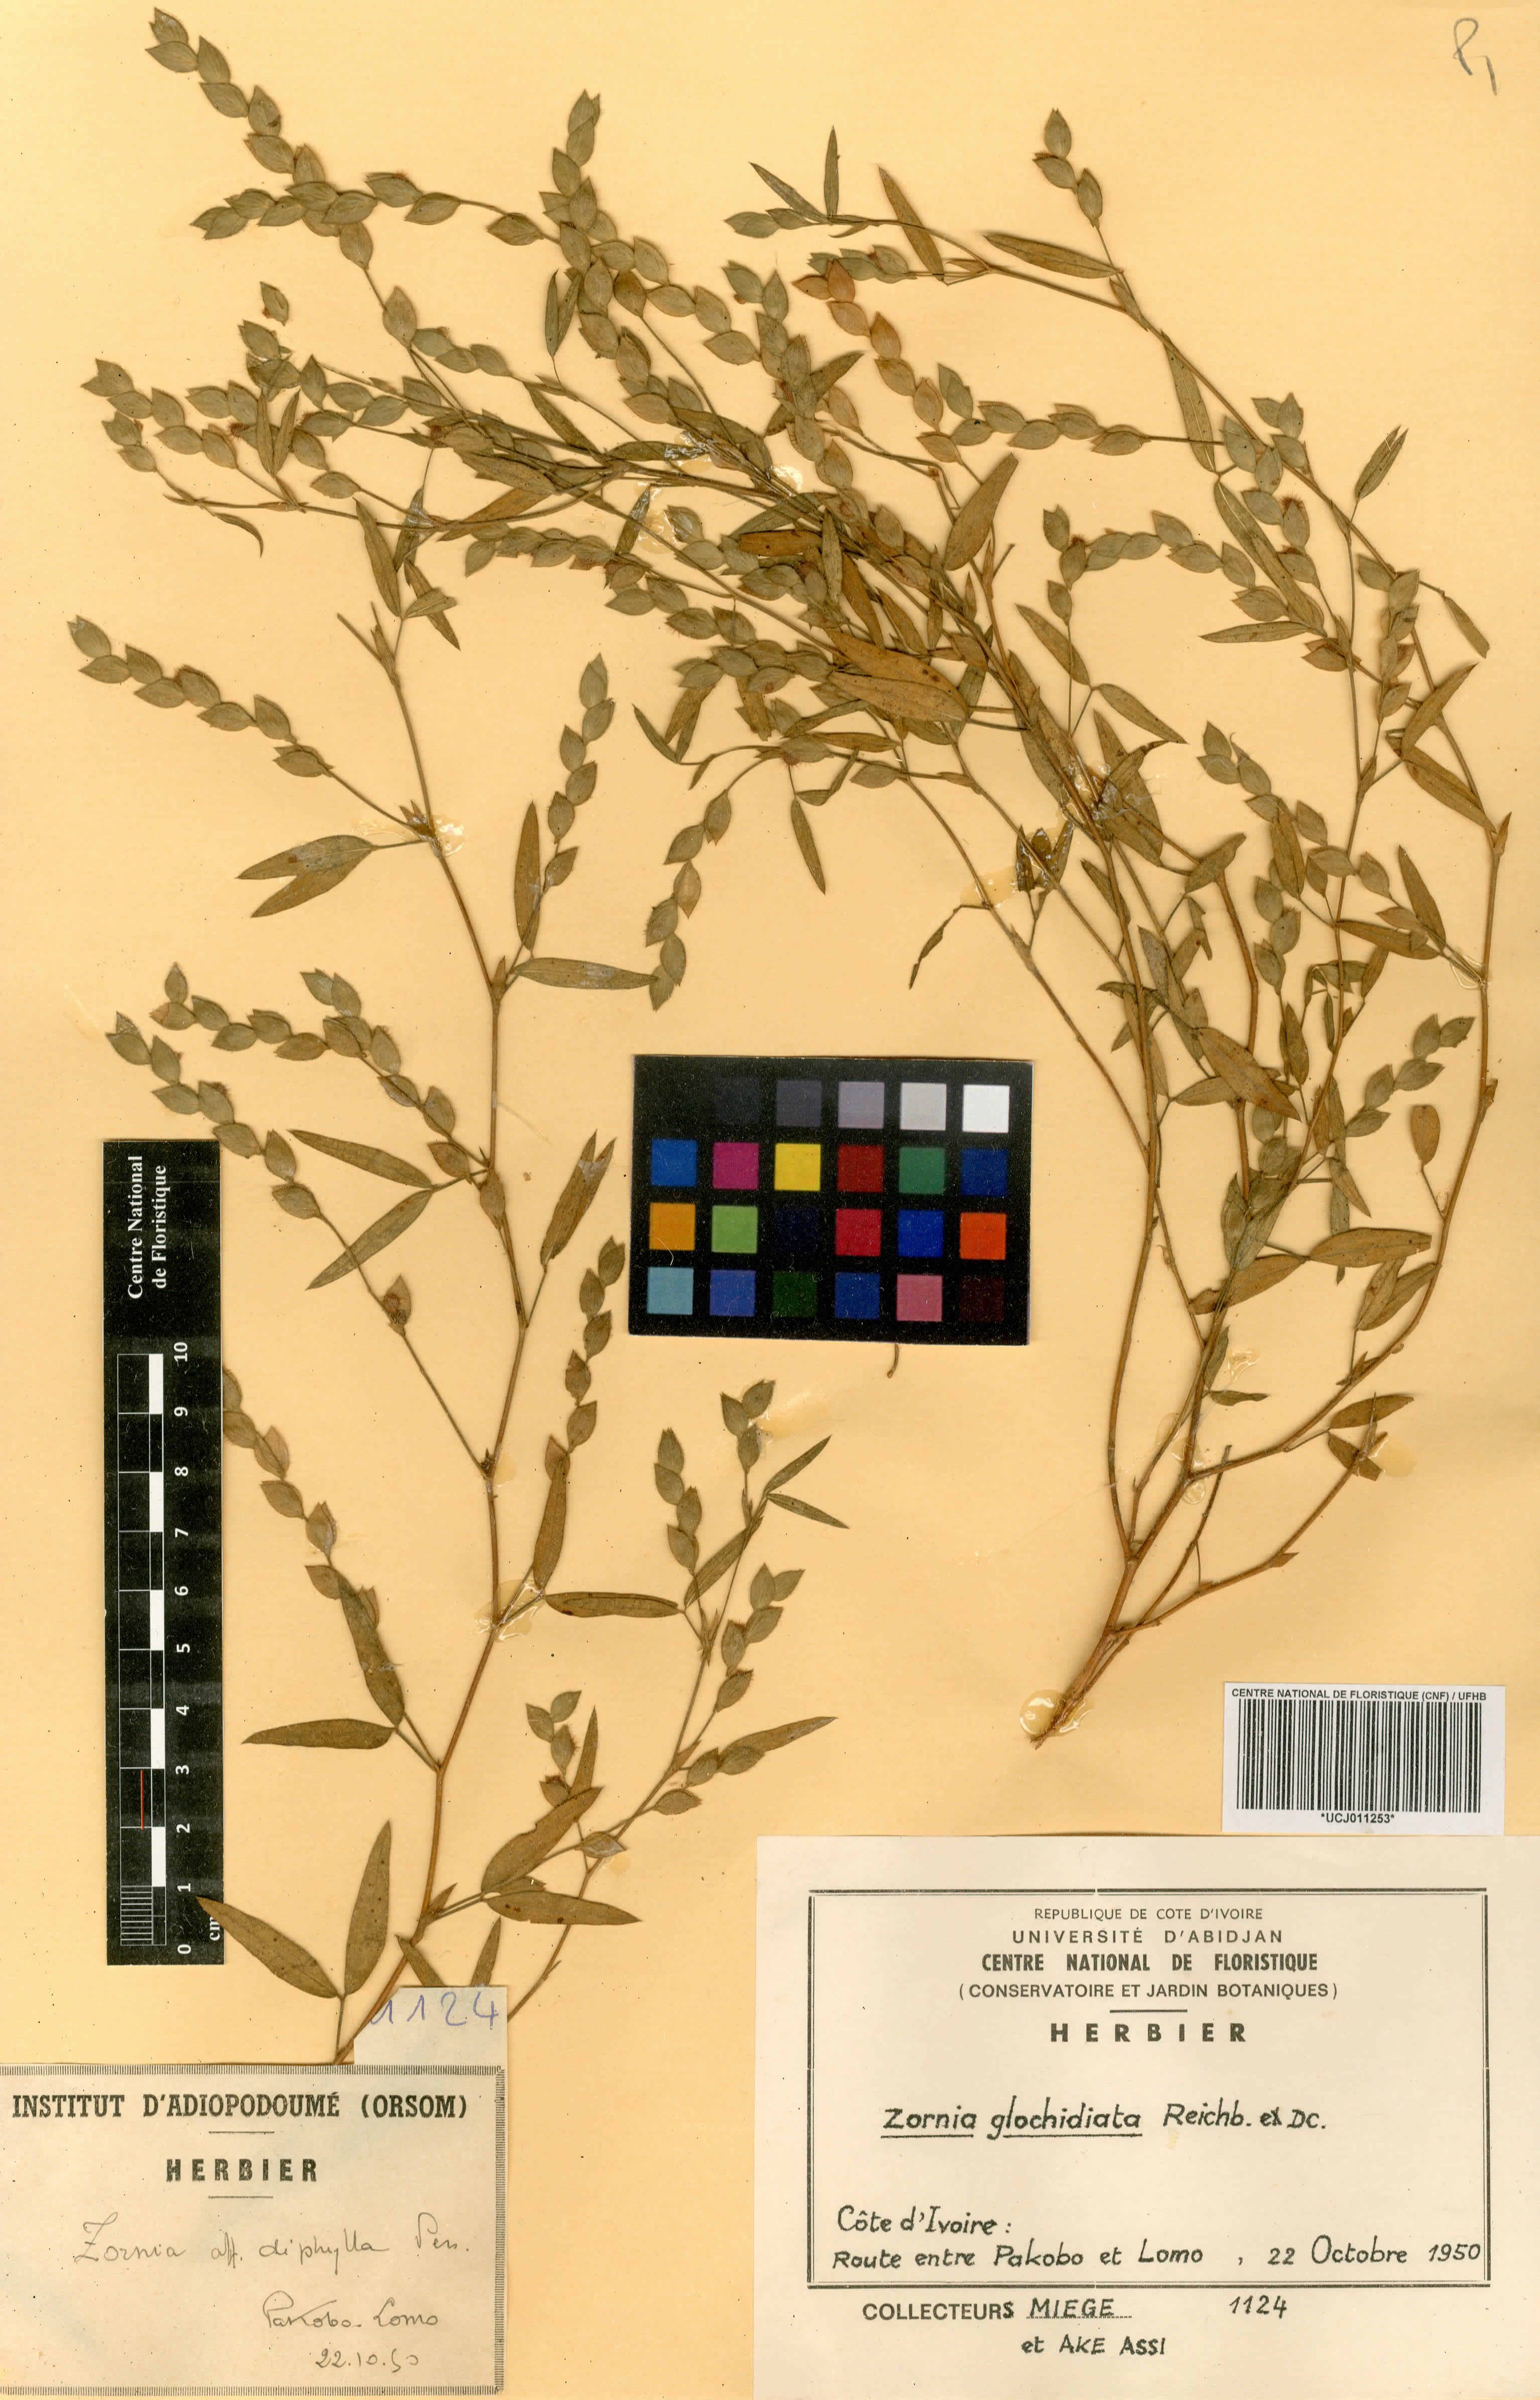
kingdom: Plantae
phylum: Tracheophyta
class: Magnoliopsida
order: Fabales
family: Fabaceae
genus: Zornia
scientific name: Zornia latifolia
